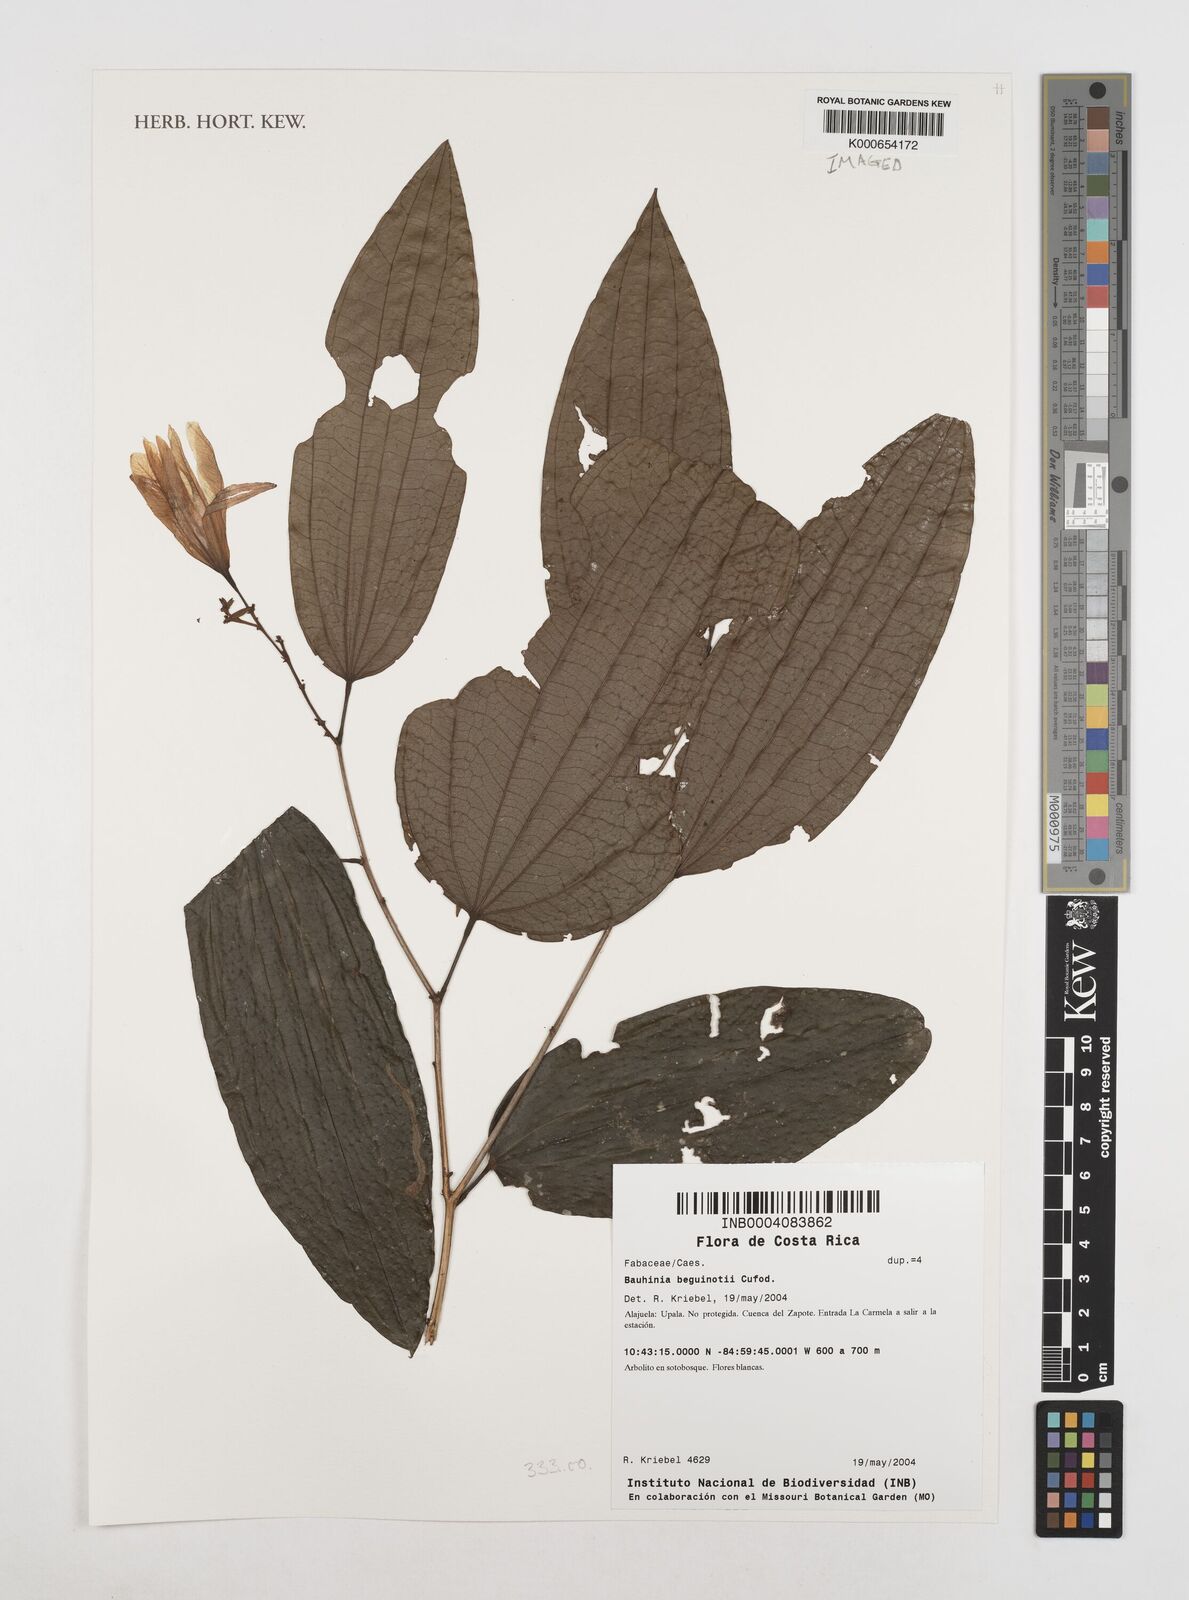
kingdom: Plantae
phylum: Tracheophyta
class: Magnoliopsida
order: Fabales
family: Fabaceae
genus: Bauhinia
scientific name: Bauhinia beguinotii
